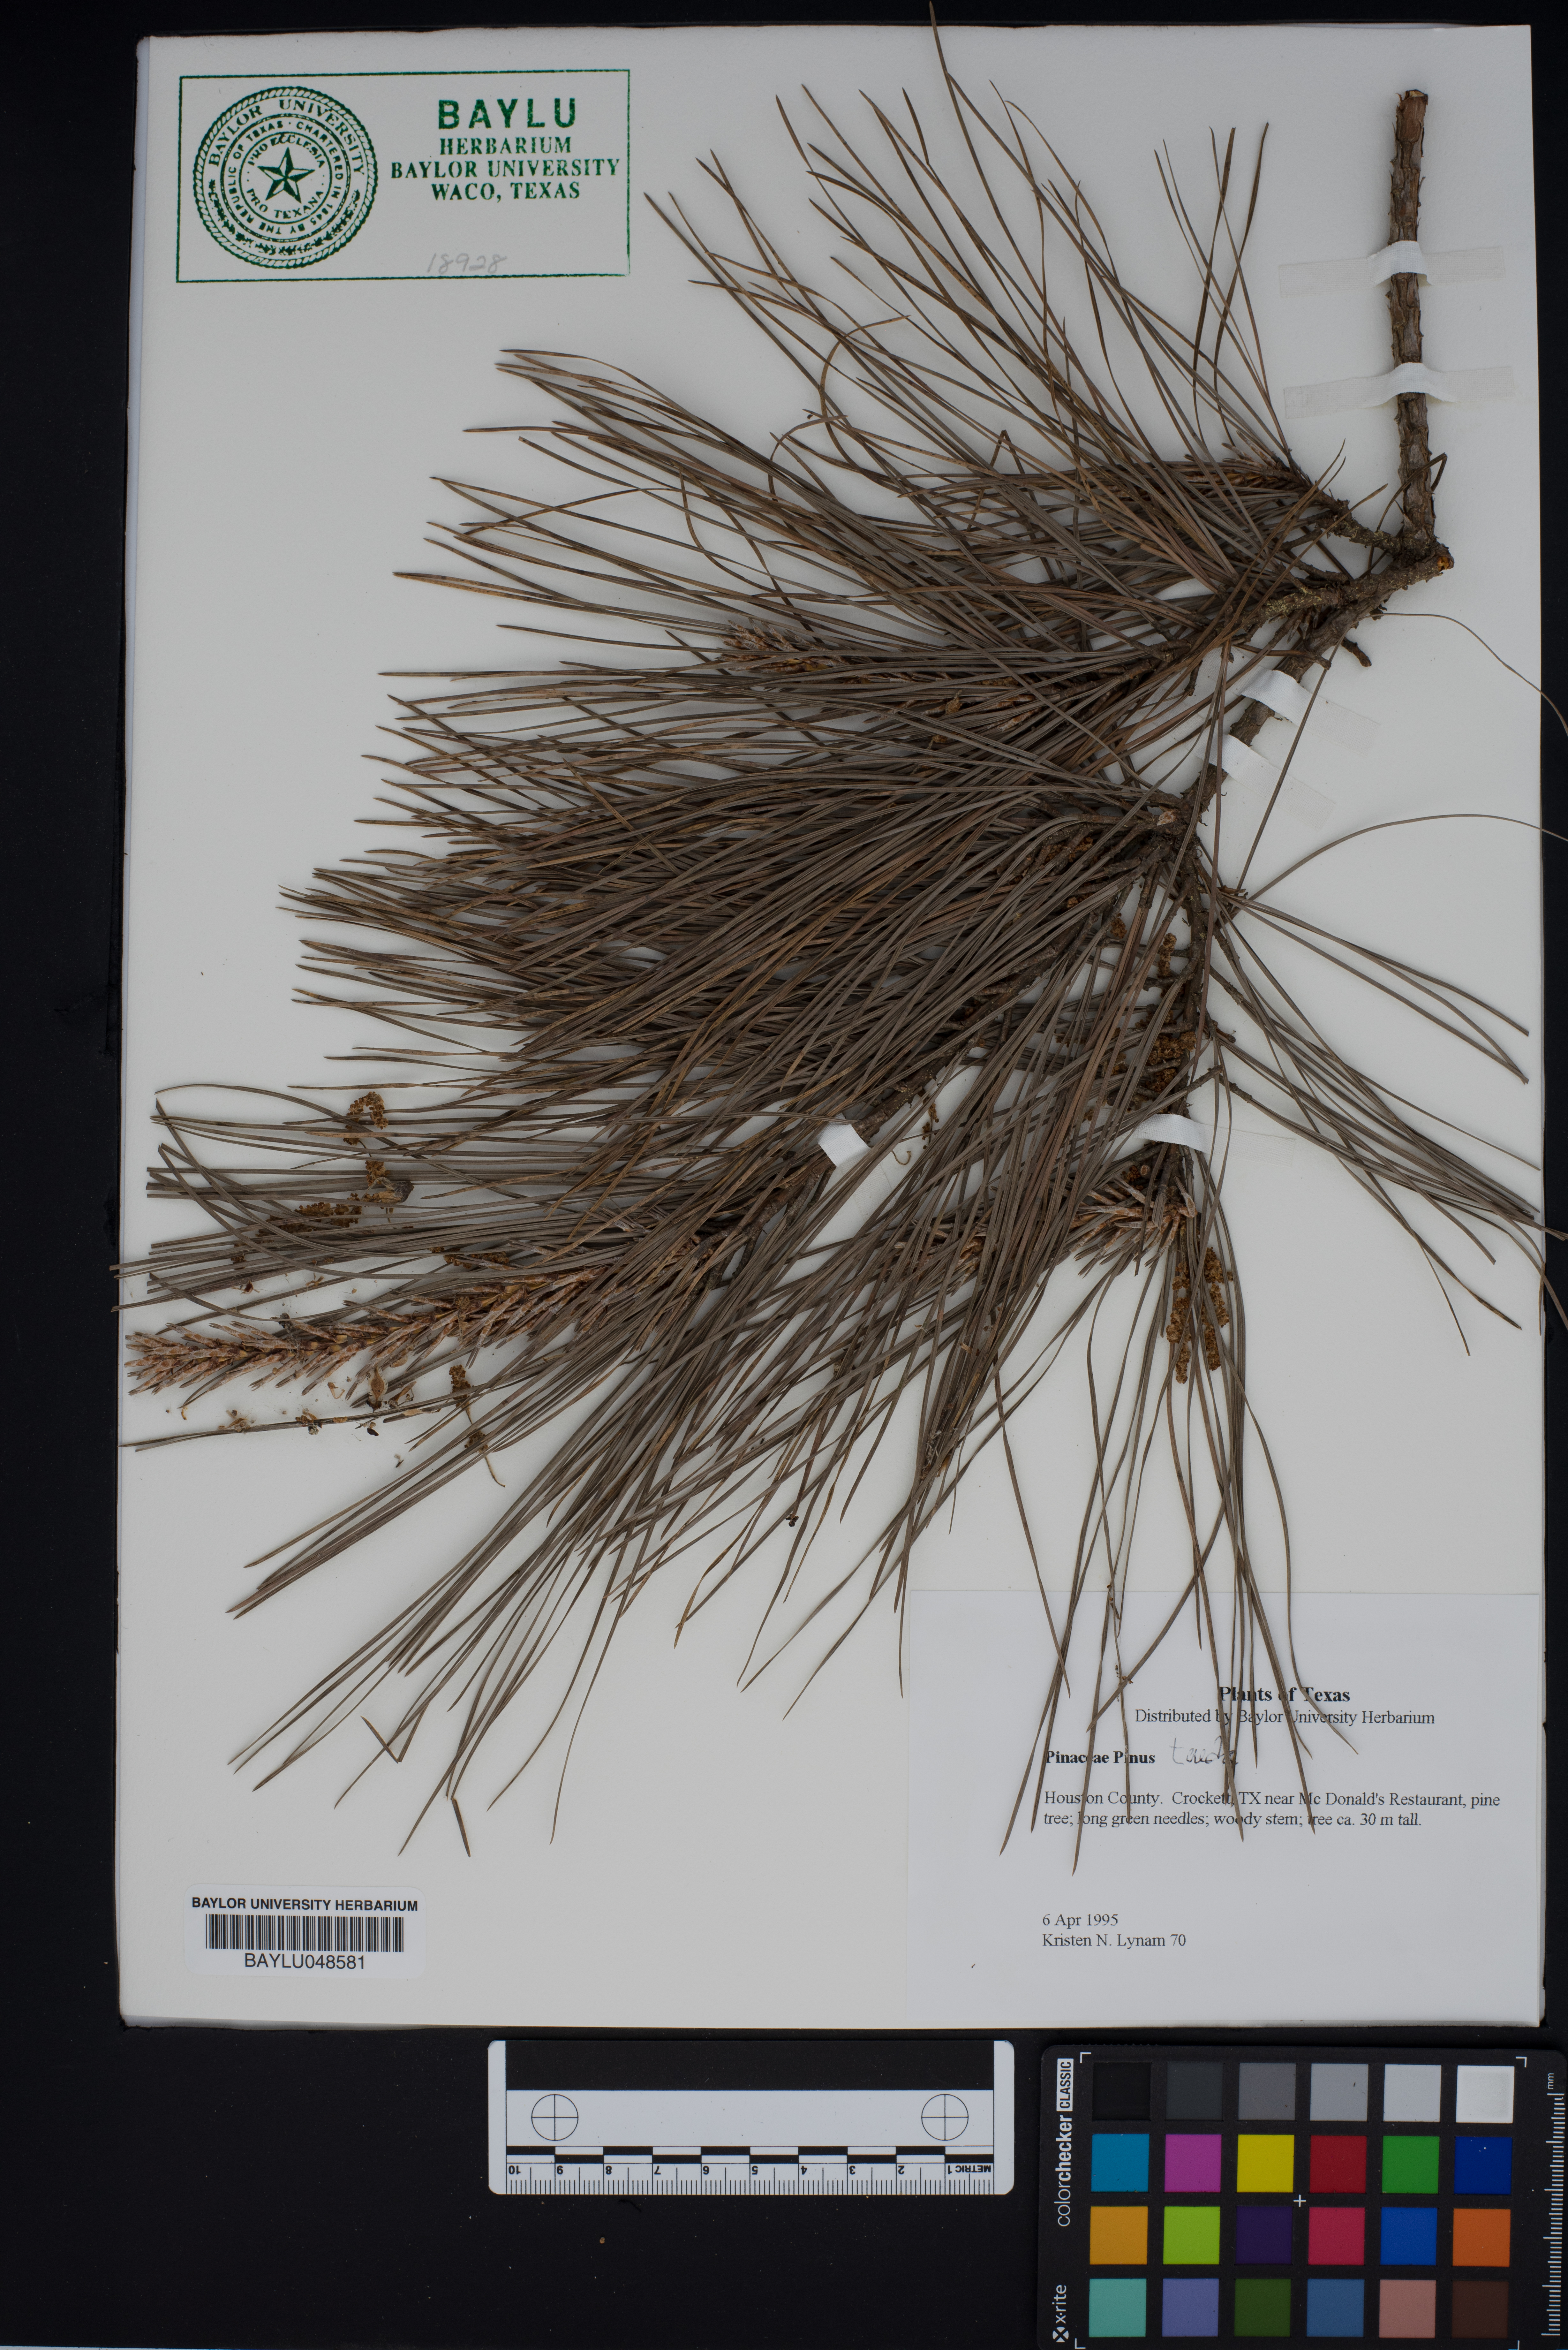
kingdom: Plantae
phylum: Tracheophyta
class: Pinopsida
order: Pinales
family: Pinaceae
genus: Pinus
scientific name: Pinus taeda
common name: Loblolly pine
